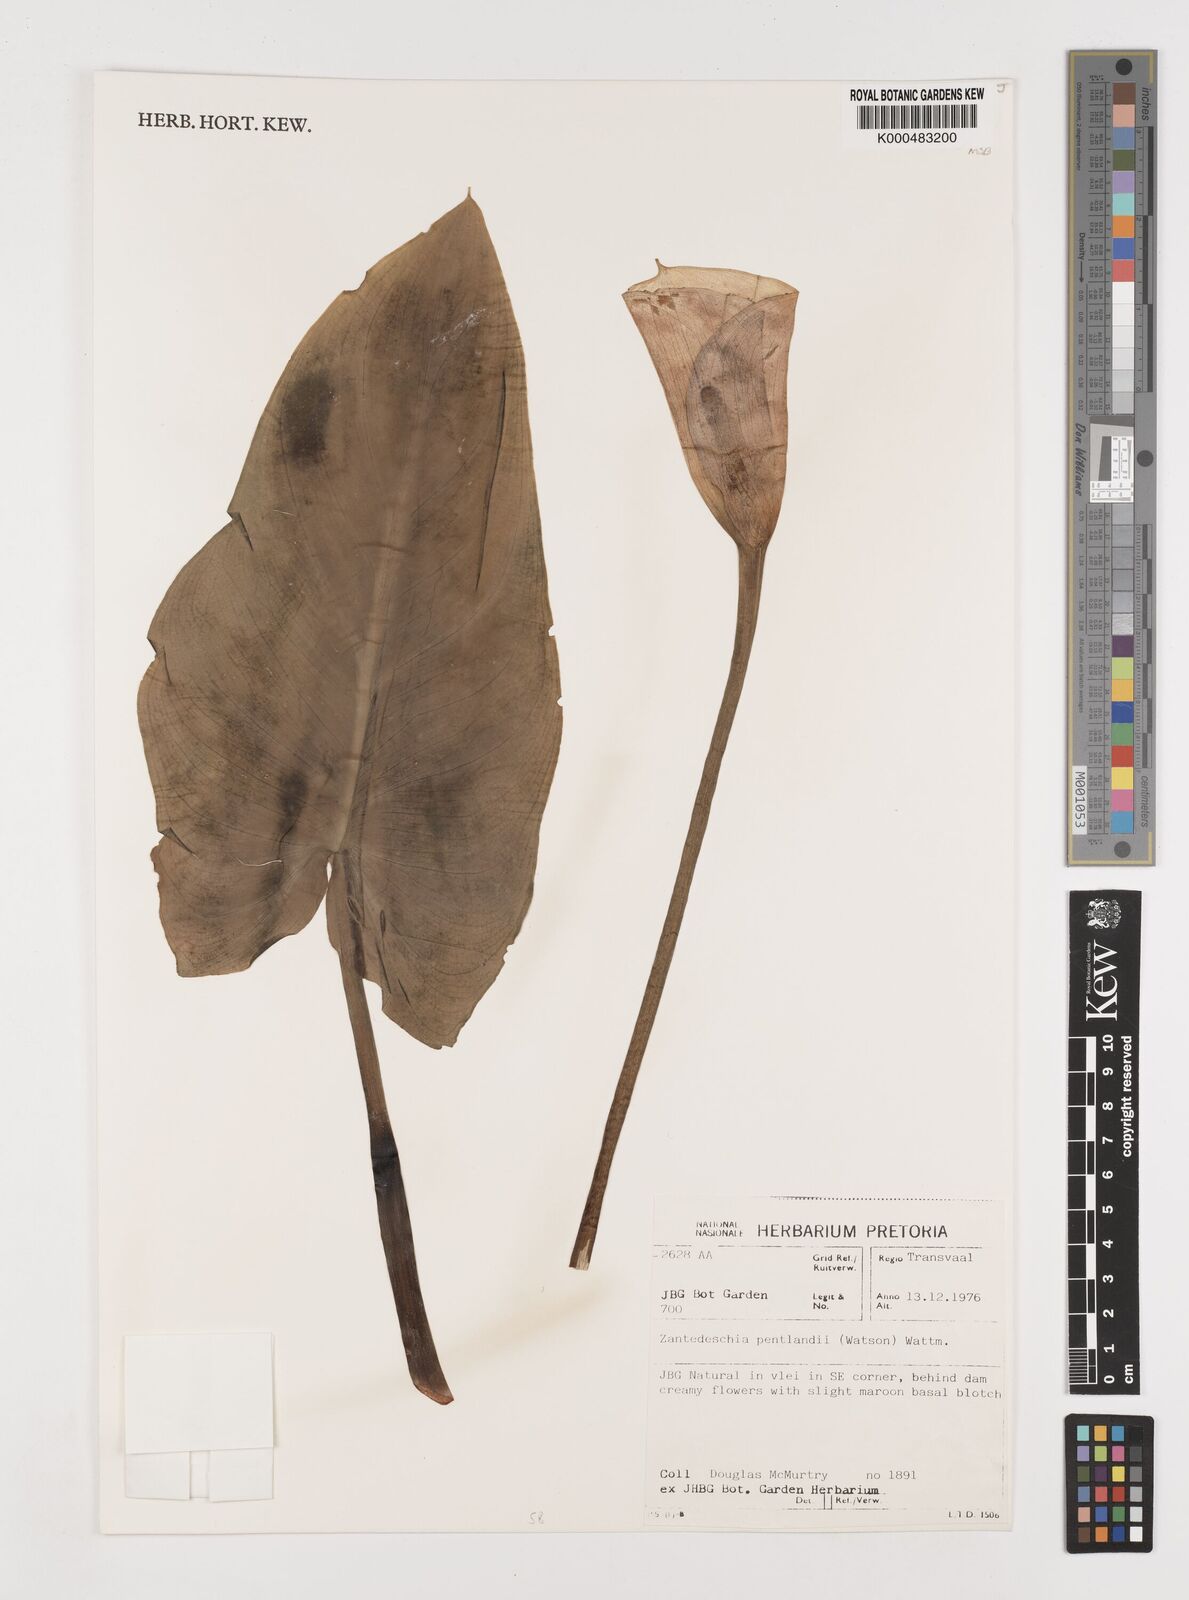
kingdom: Plantae
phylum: Tracheophyta
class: Liliopsida
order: Alismatales
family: Araceae
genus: Zantedeschia
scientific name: Zantedeschia pentlandii
